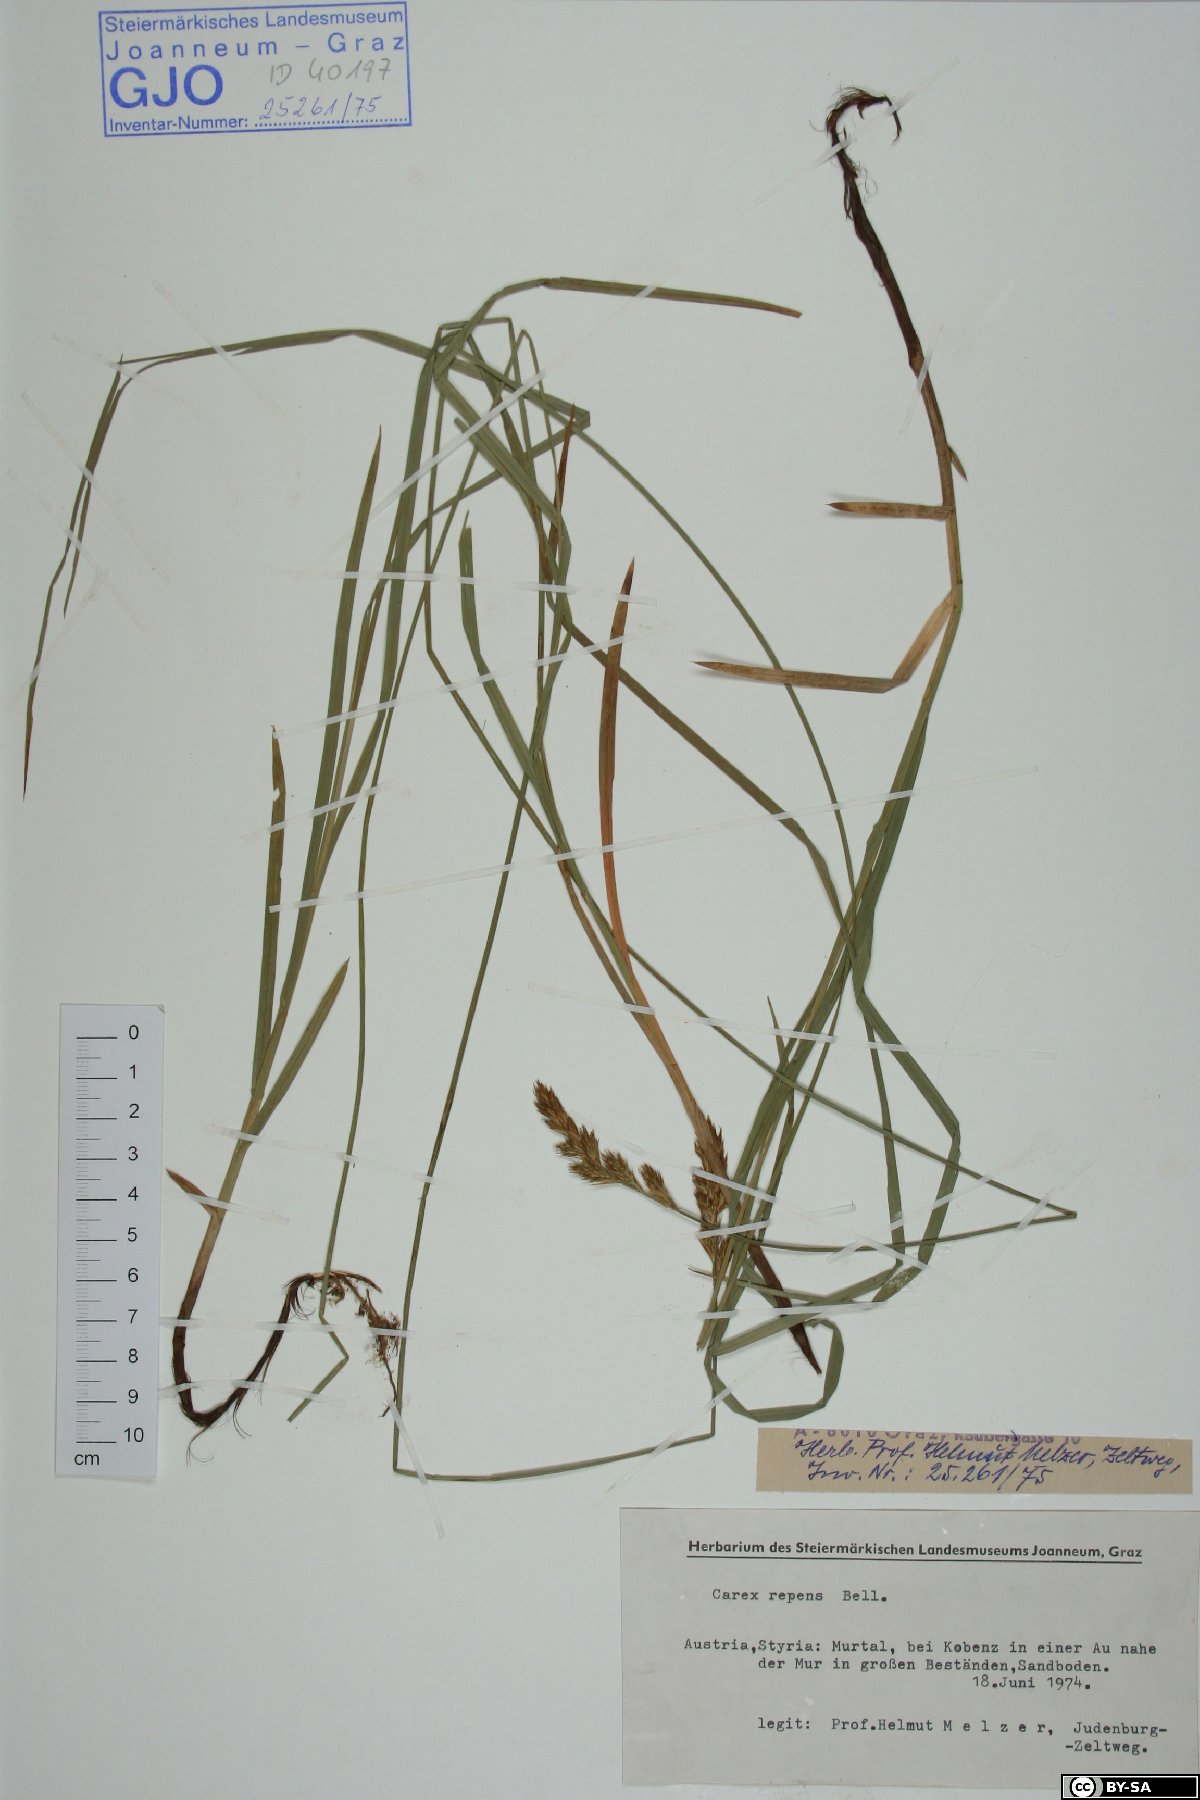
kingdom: Plantae
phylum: Tracheophyta
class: Liliopsida
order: Poales
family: Cyperaceae
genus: Carex
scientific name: Carex repens
